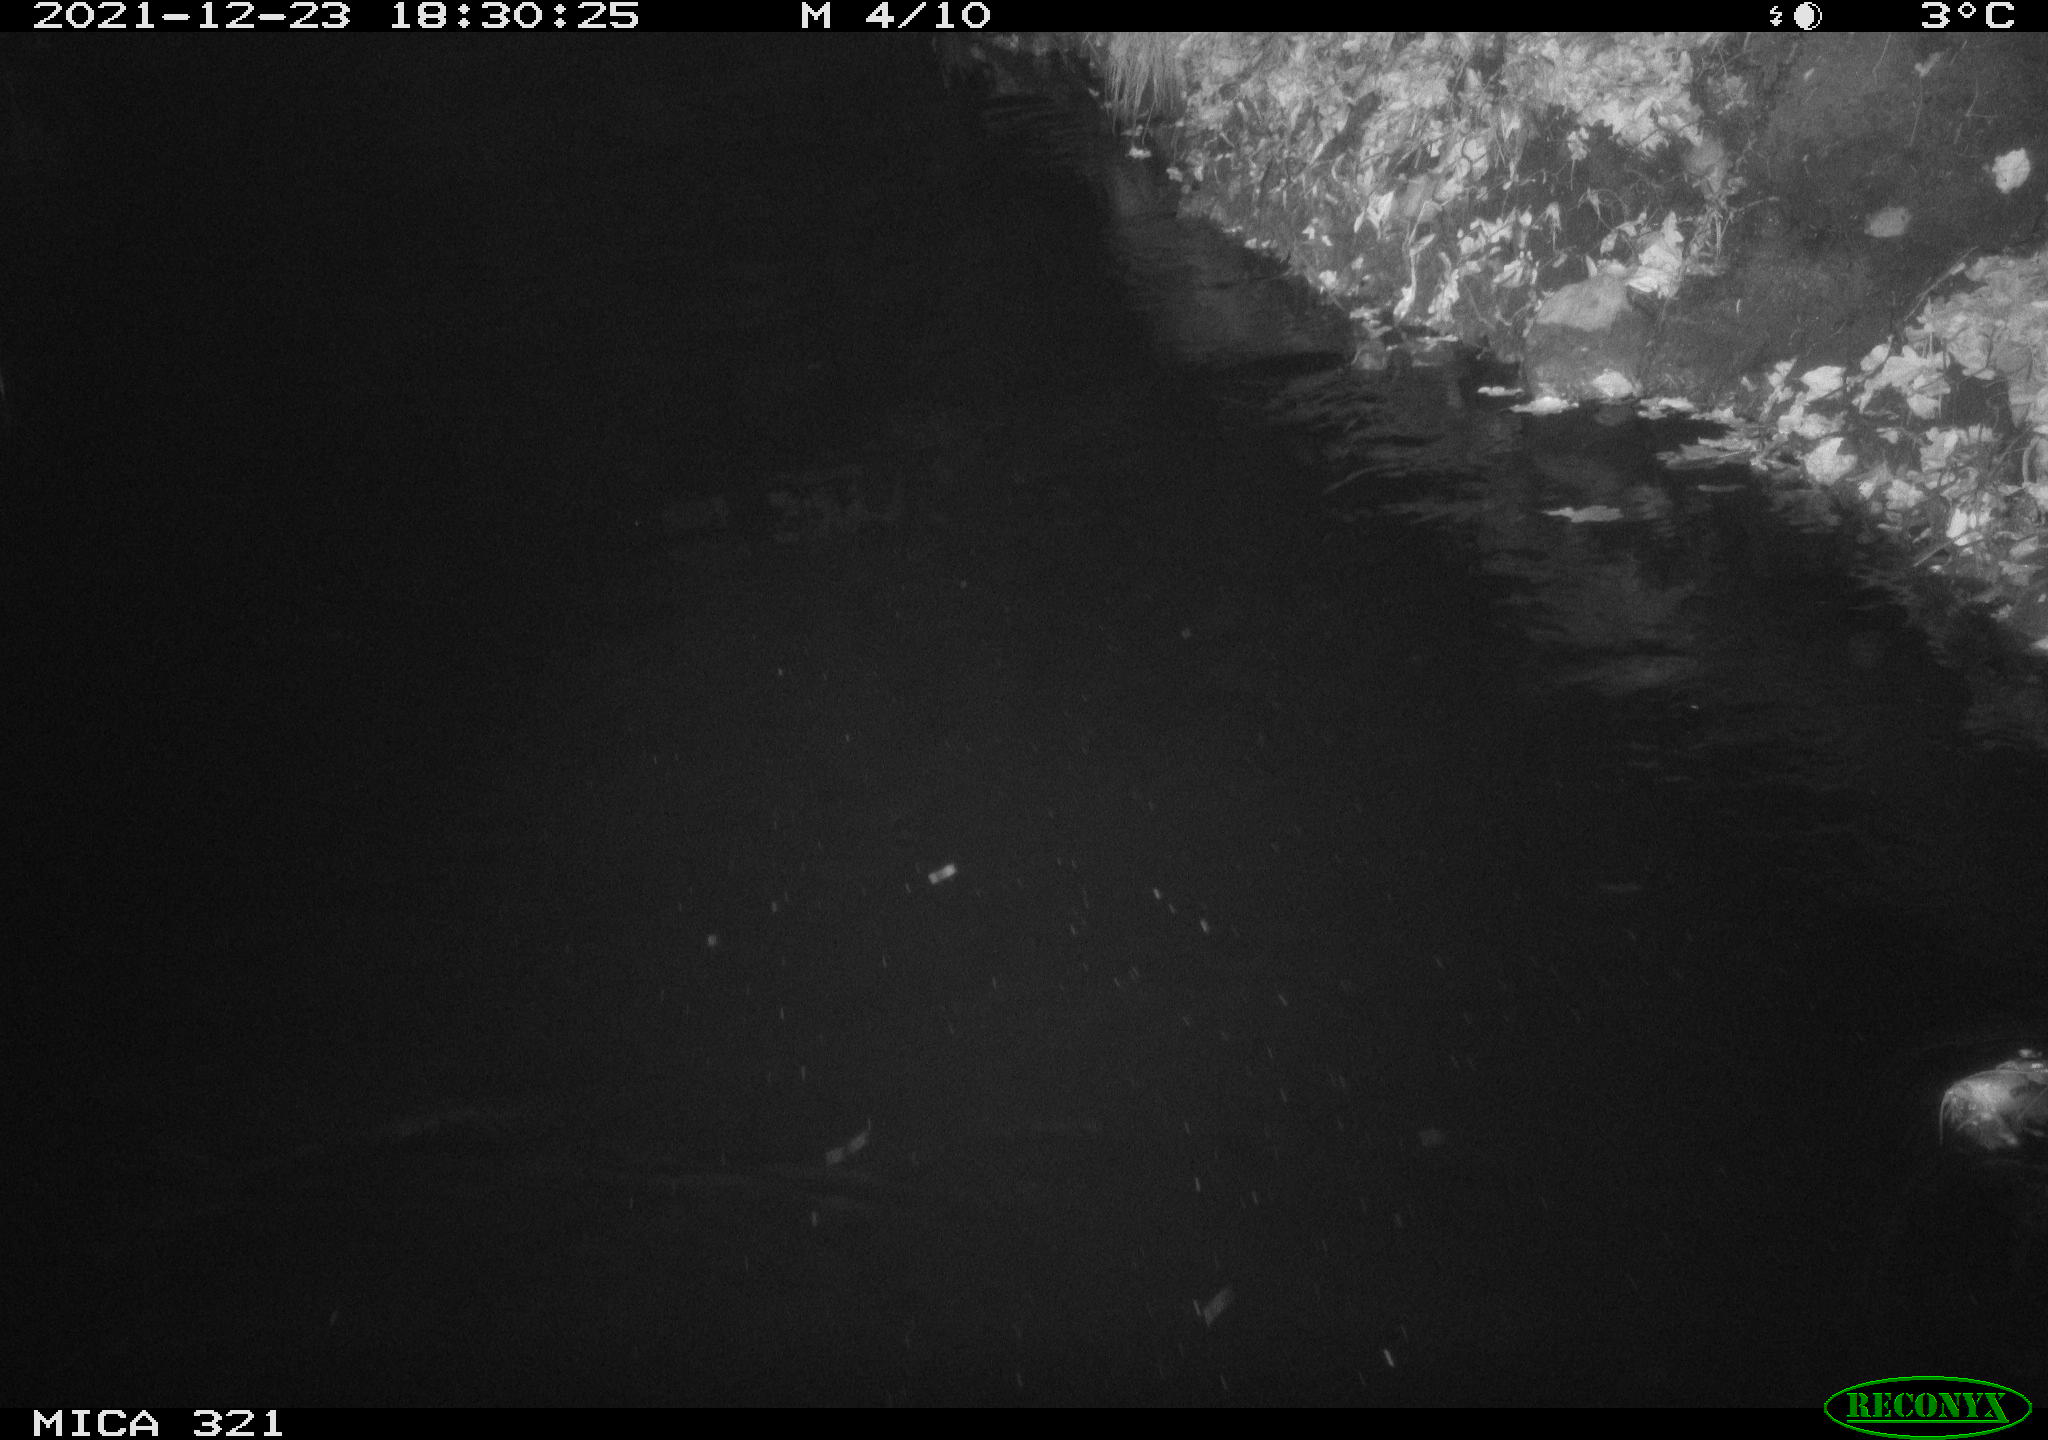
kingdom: Animalia
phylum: Chordata
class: Mammalia
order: Rodentia
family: Muridae
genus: Rattus
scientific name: Rattus norvegicus
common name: Brown rat
